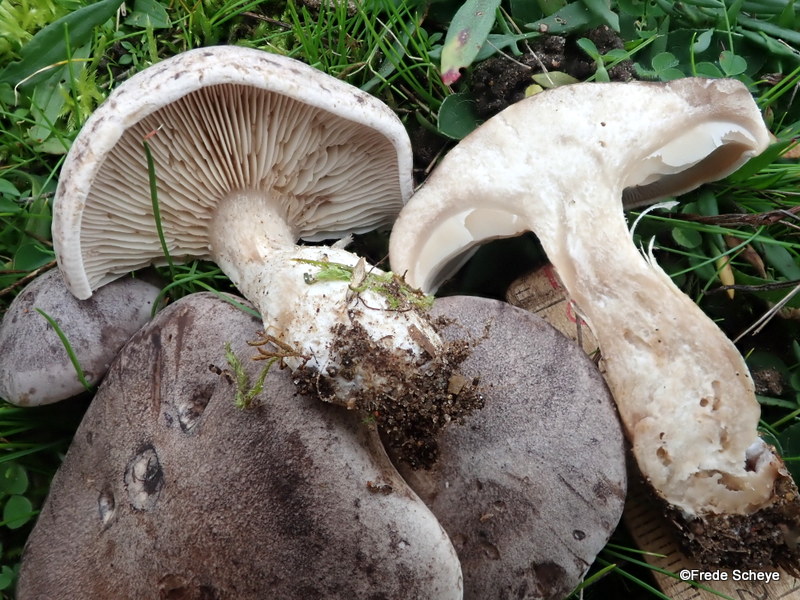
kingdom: Fungi
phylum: Basidiomycota
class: Agaricomycetes
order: Agaricales
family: Tricholomataceae
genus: Lepista
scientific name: Lepista panaeolus
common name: marmoreret hekseringshat
